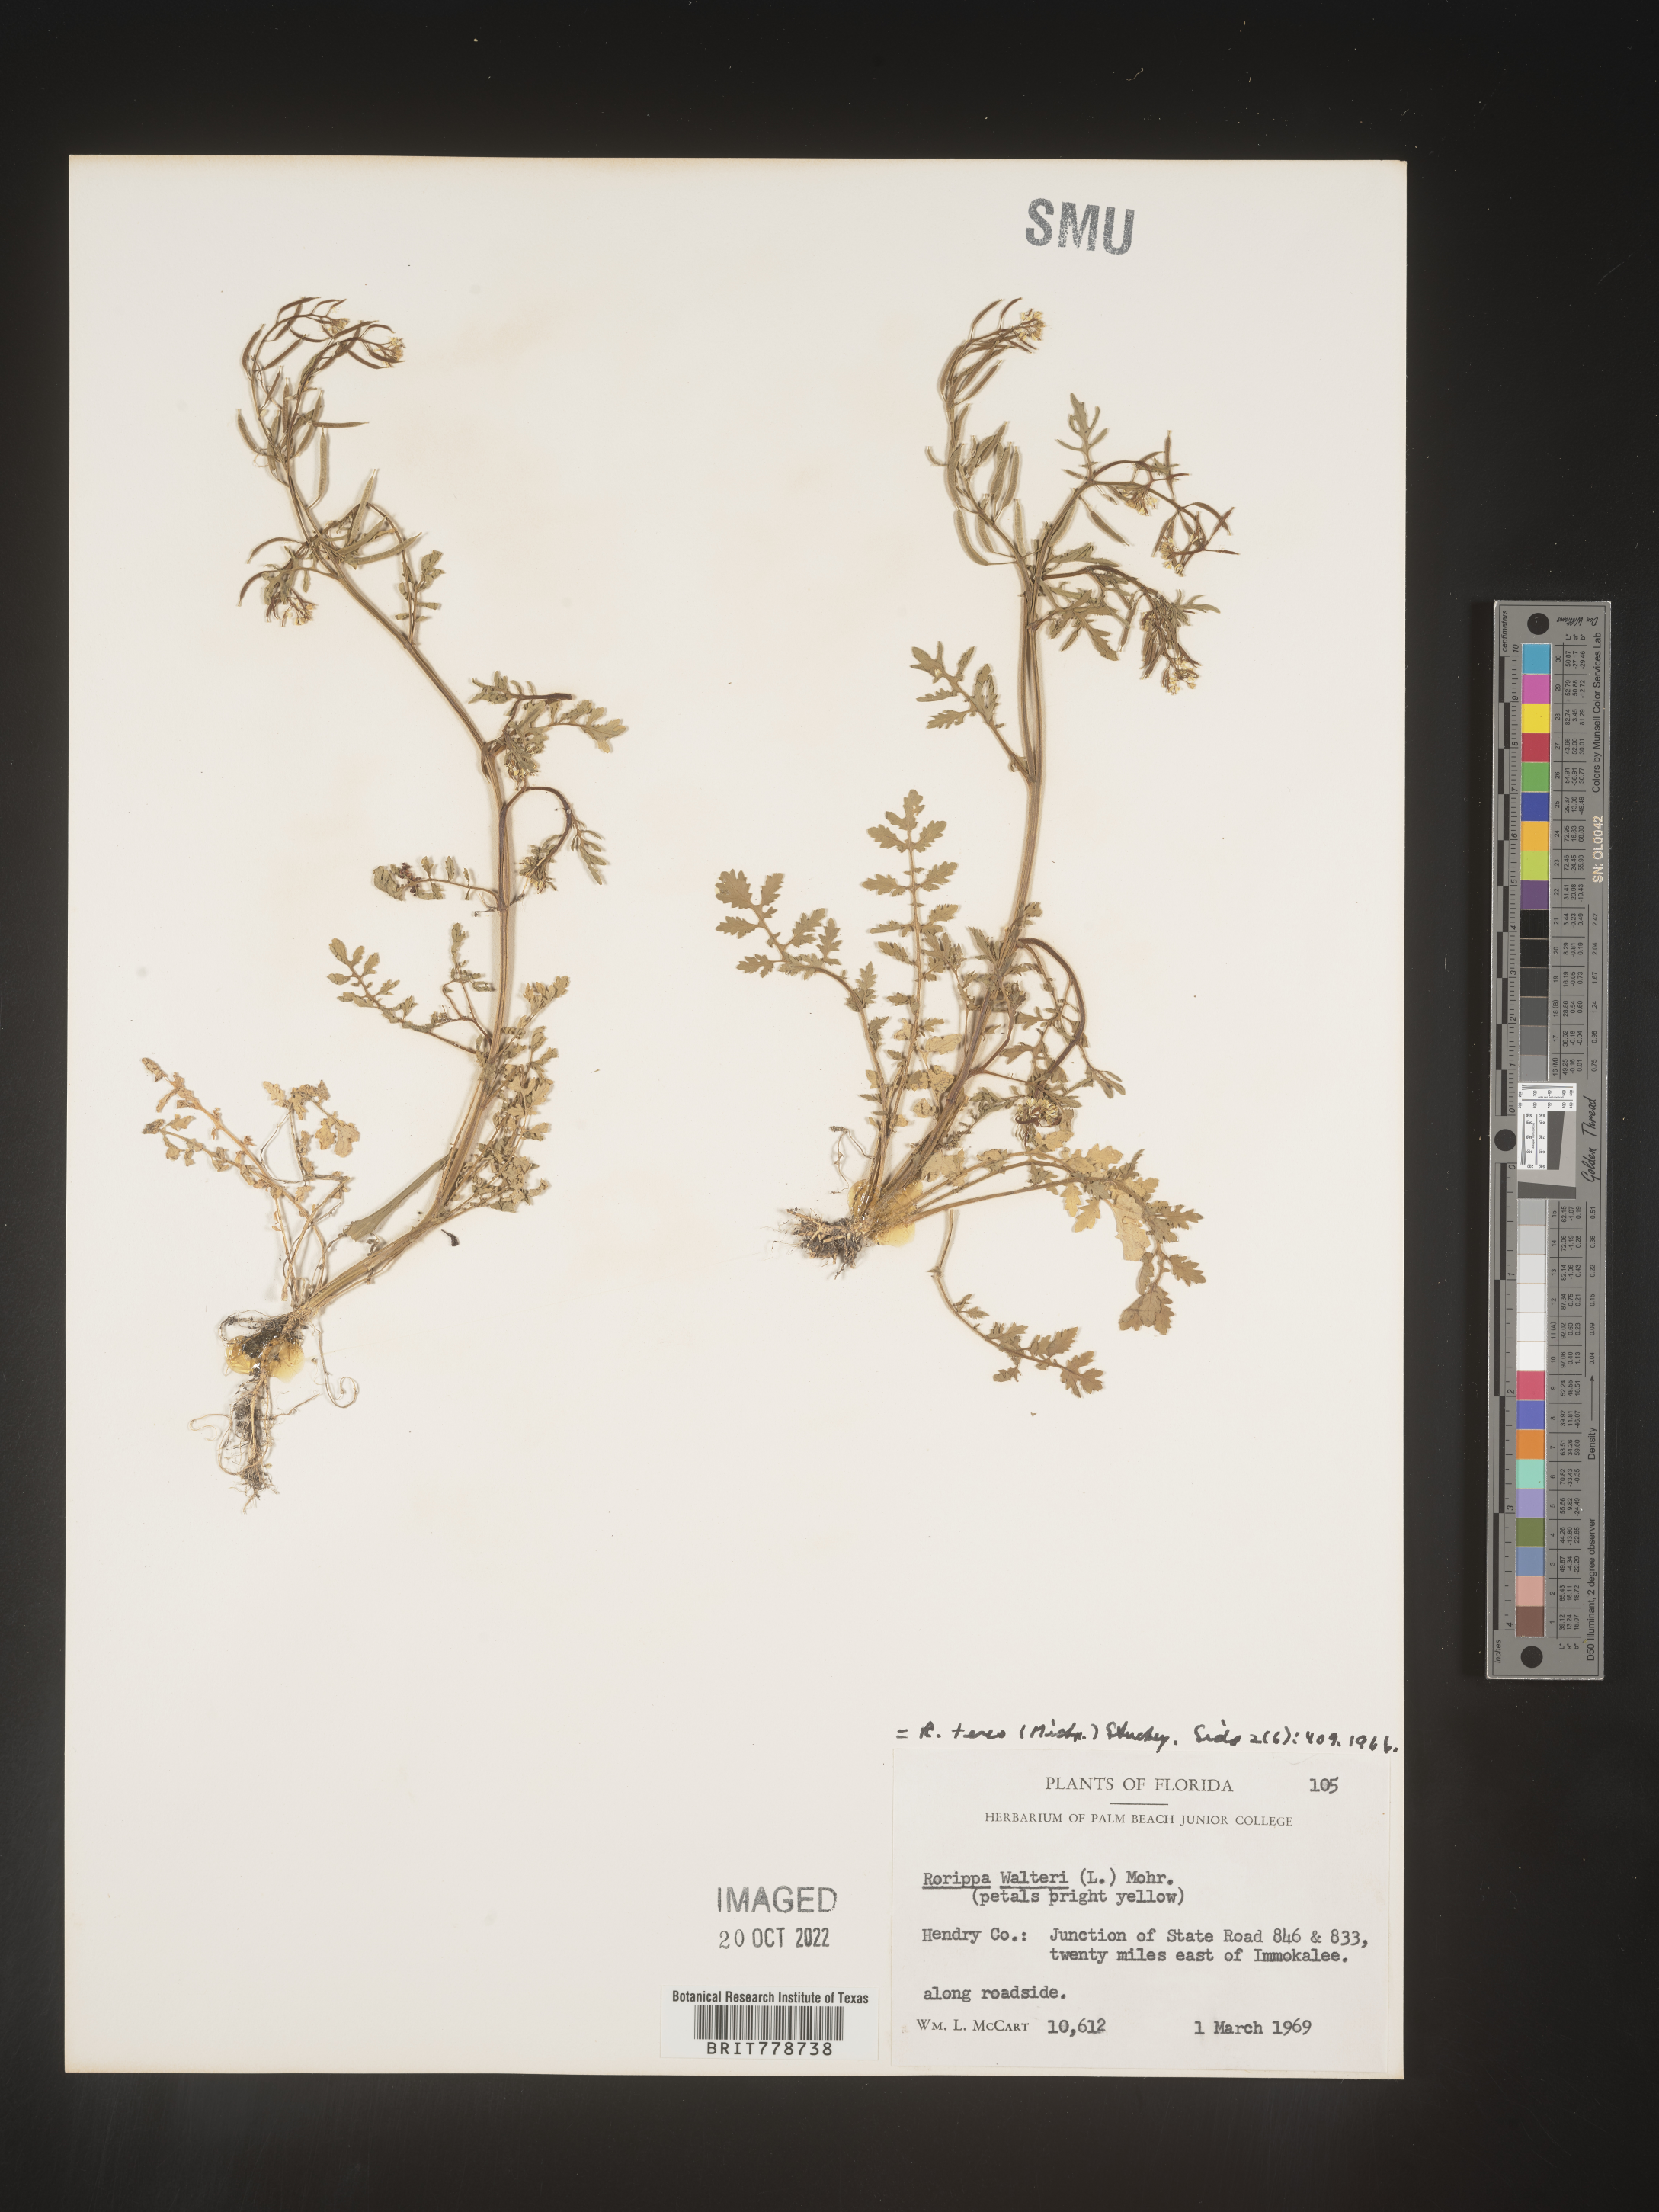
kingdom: Plantae
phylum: Tracheophyta
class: Magnoliopsida
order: Brassicales
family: Brassicaceae
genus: Rorippa
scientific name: Rorippa teres
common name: Southern marsh yellowcress
